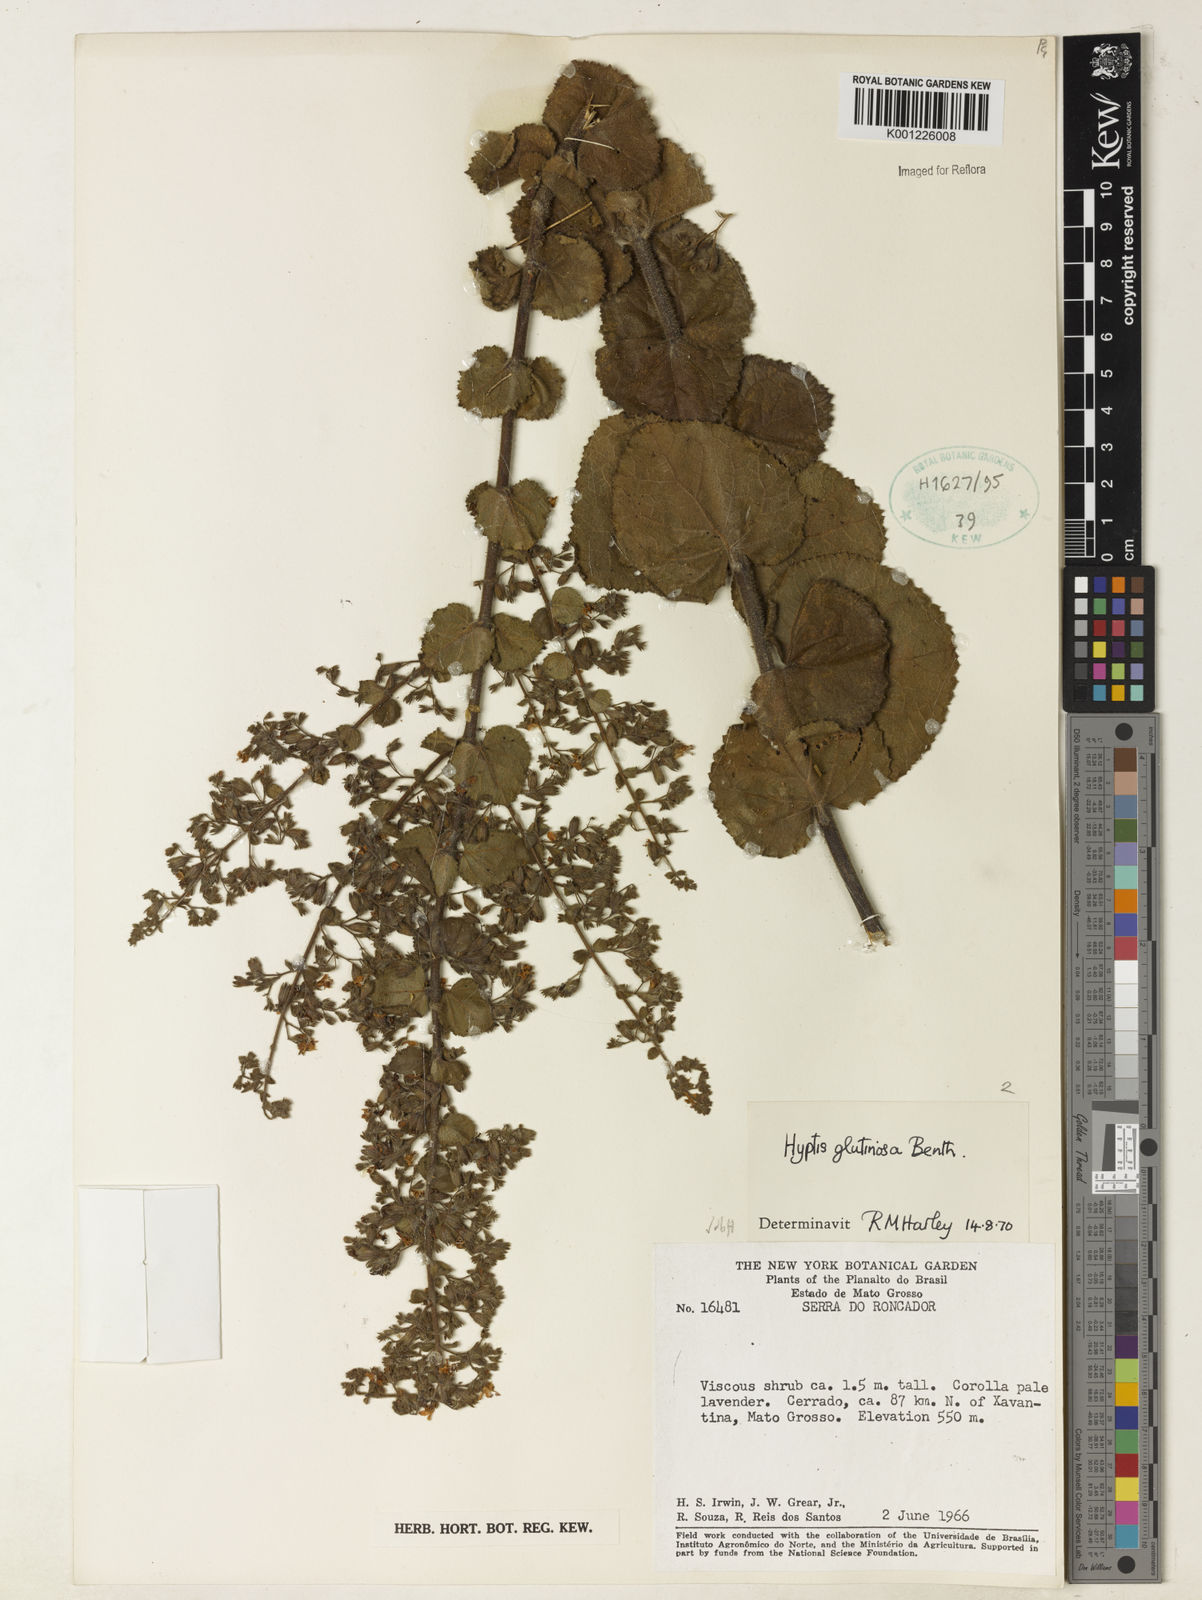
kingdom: Plantae
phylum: Tracheophyta
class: Magnoliopsida
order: Lamiales
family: Lamiaceae
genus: Hyptidendron
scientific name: Hyptidendron glutinosum
